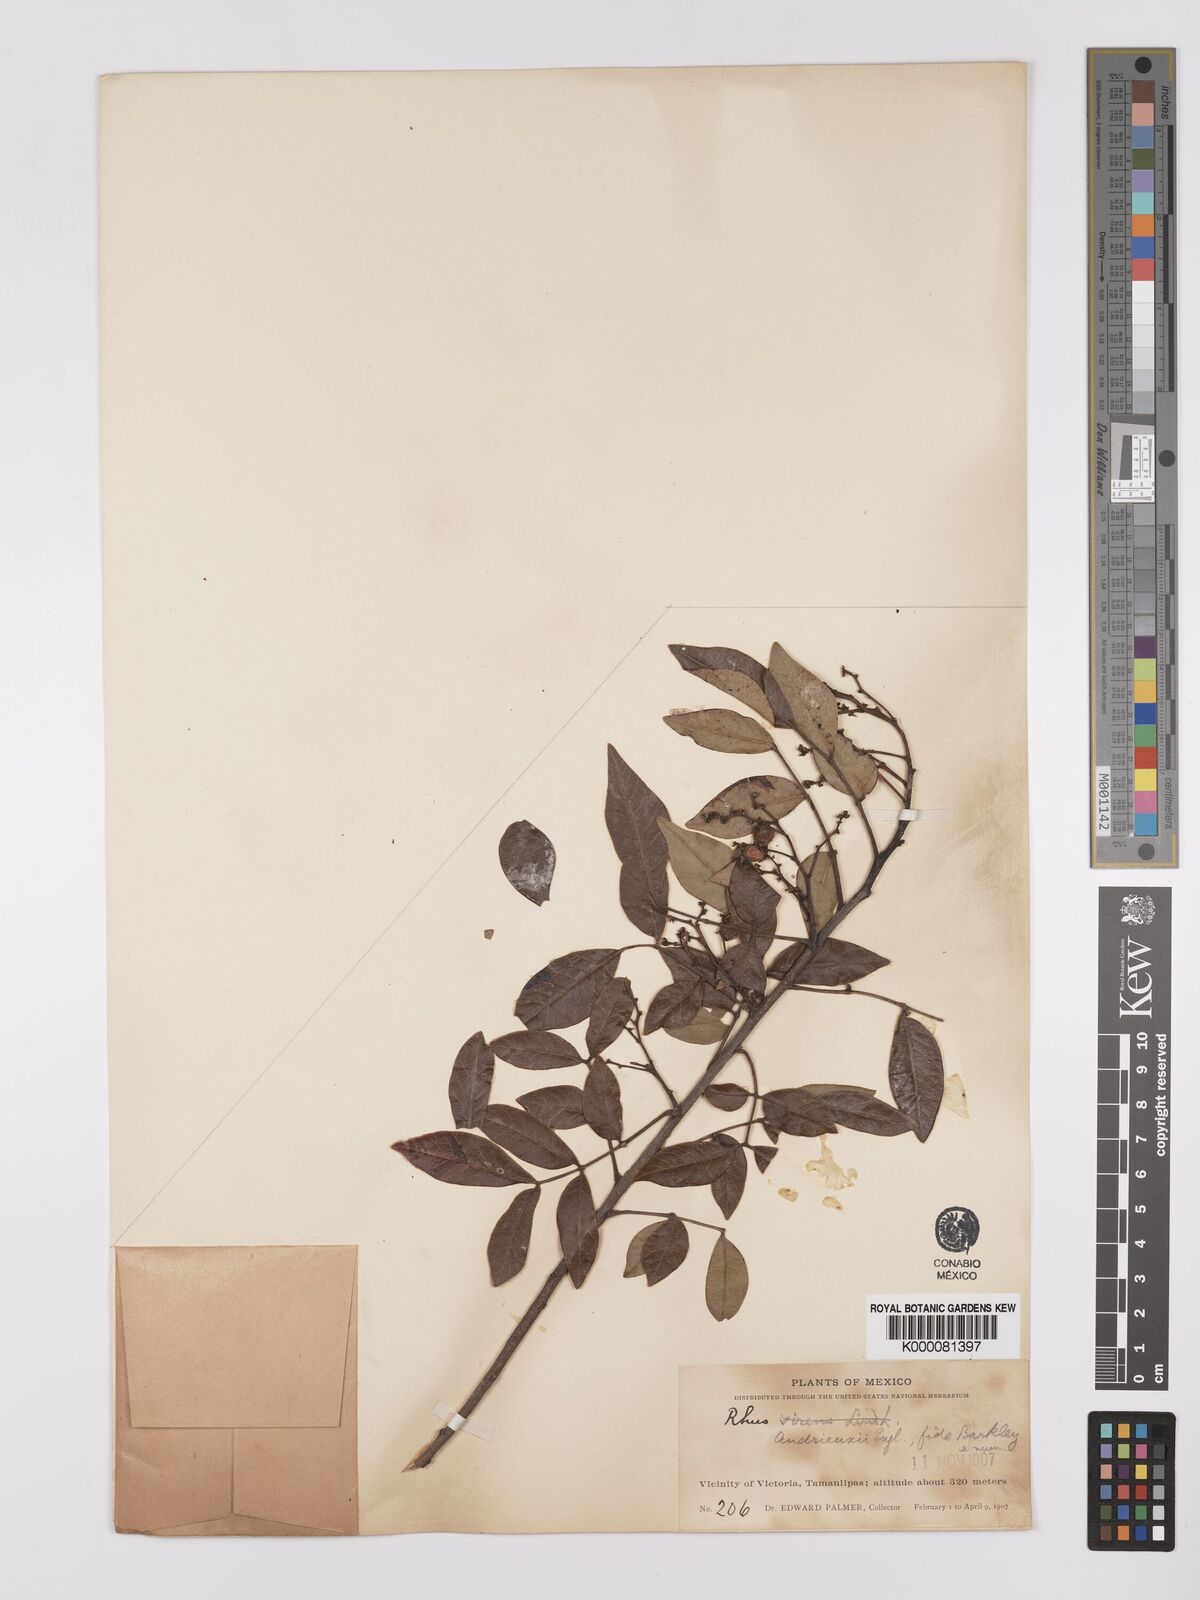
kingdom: Plantae
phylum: Tracheophyta
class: Magnoliopsida
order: Sapindales
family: Anacardiaceae
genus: Rhus
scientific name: Rhus schiedeana
